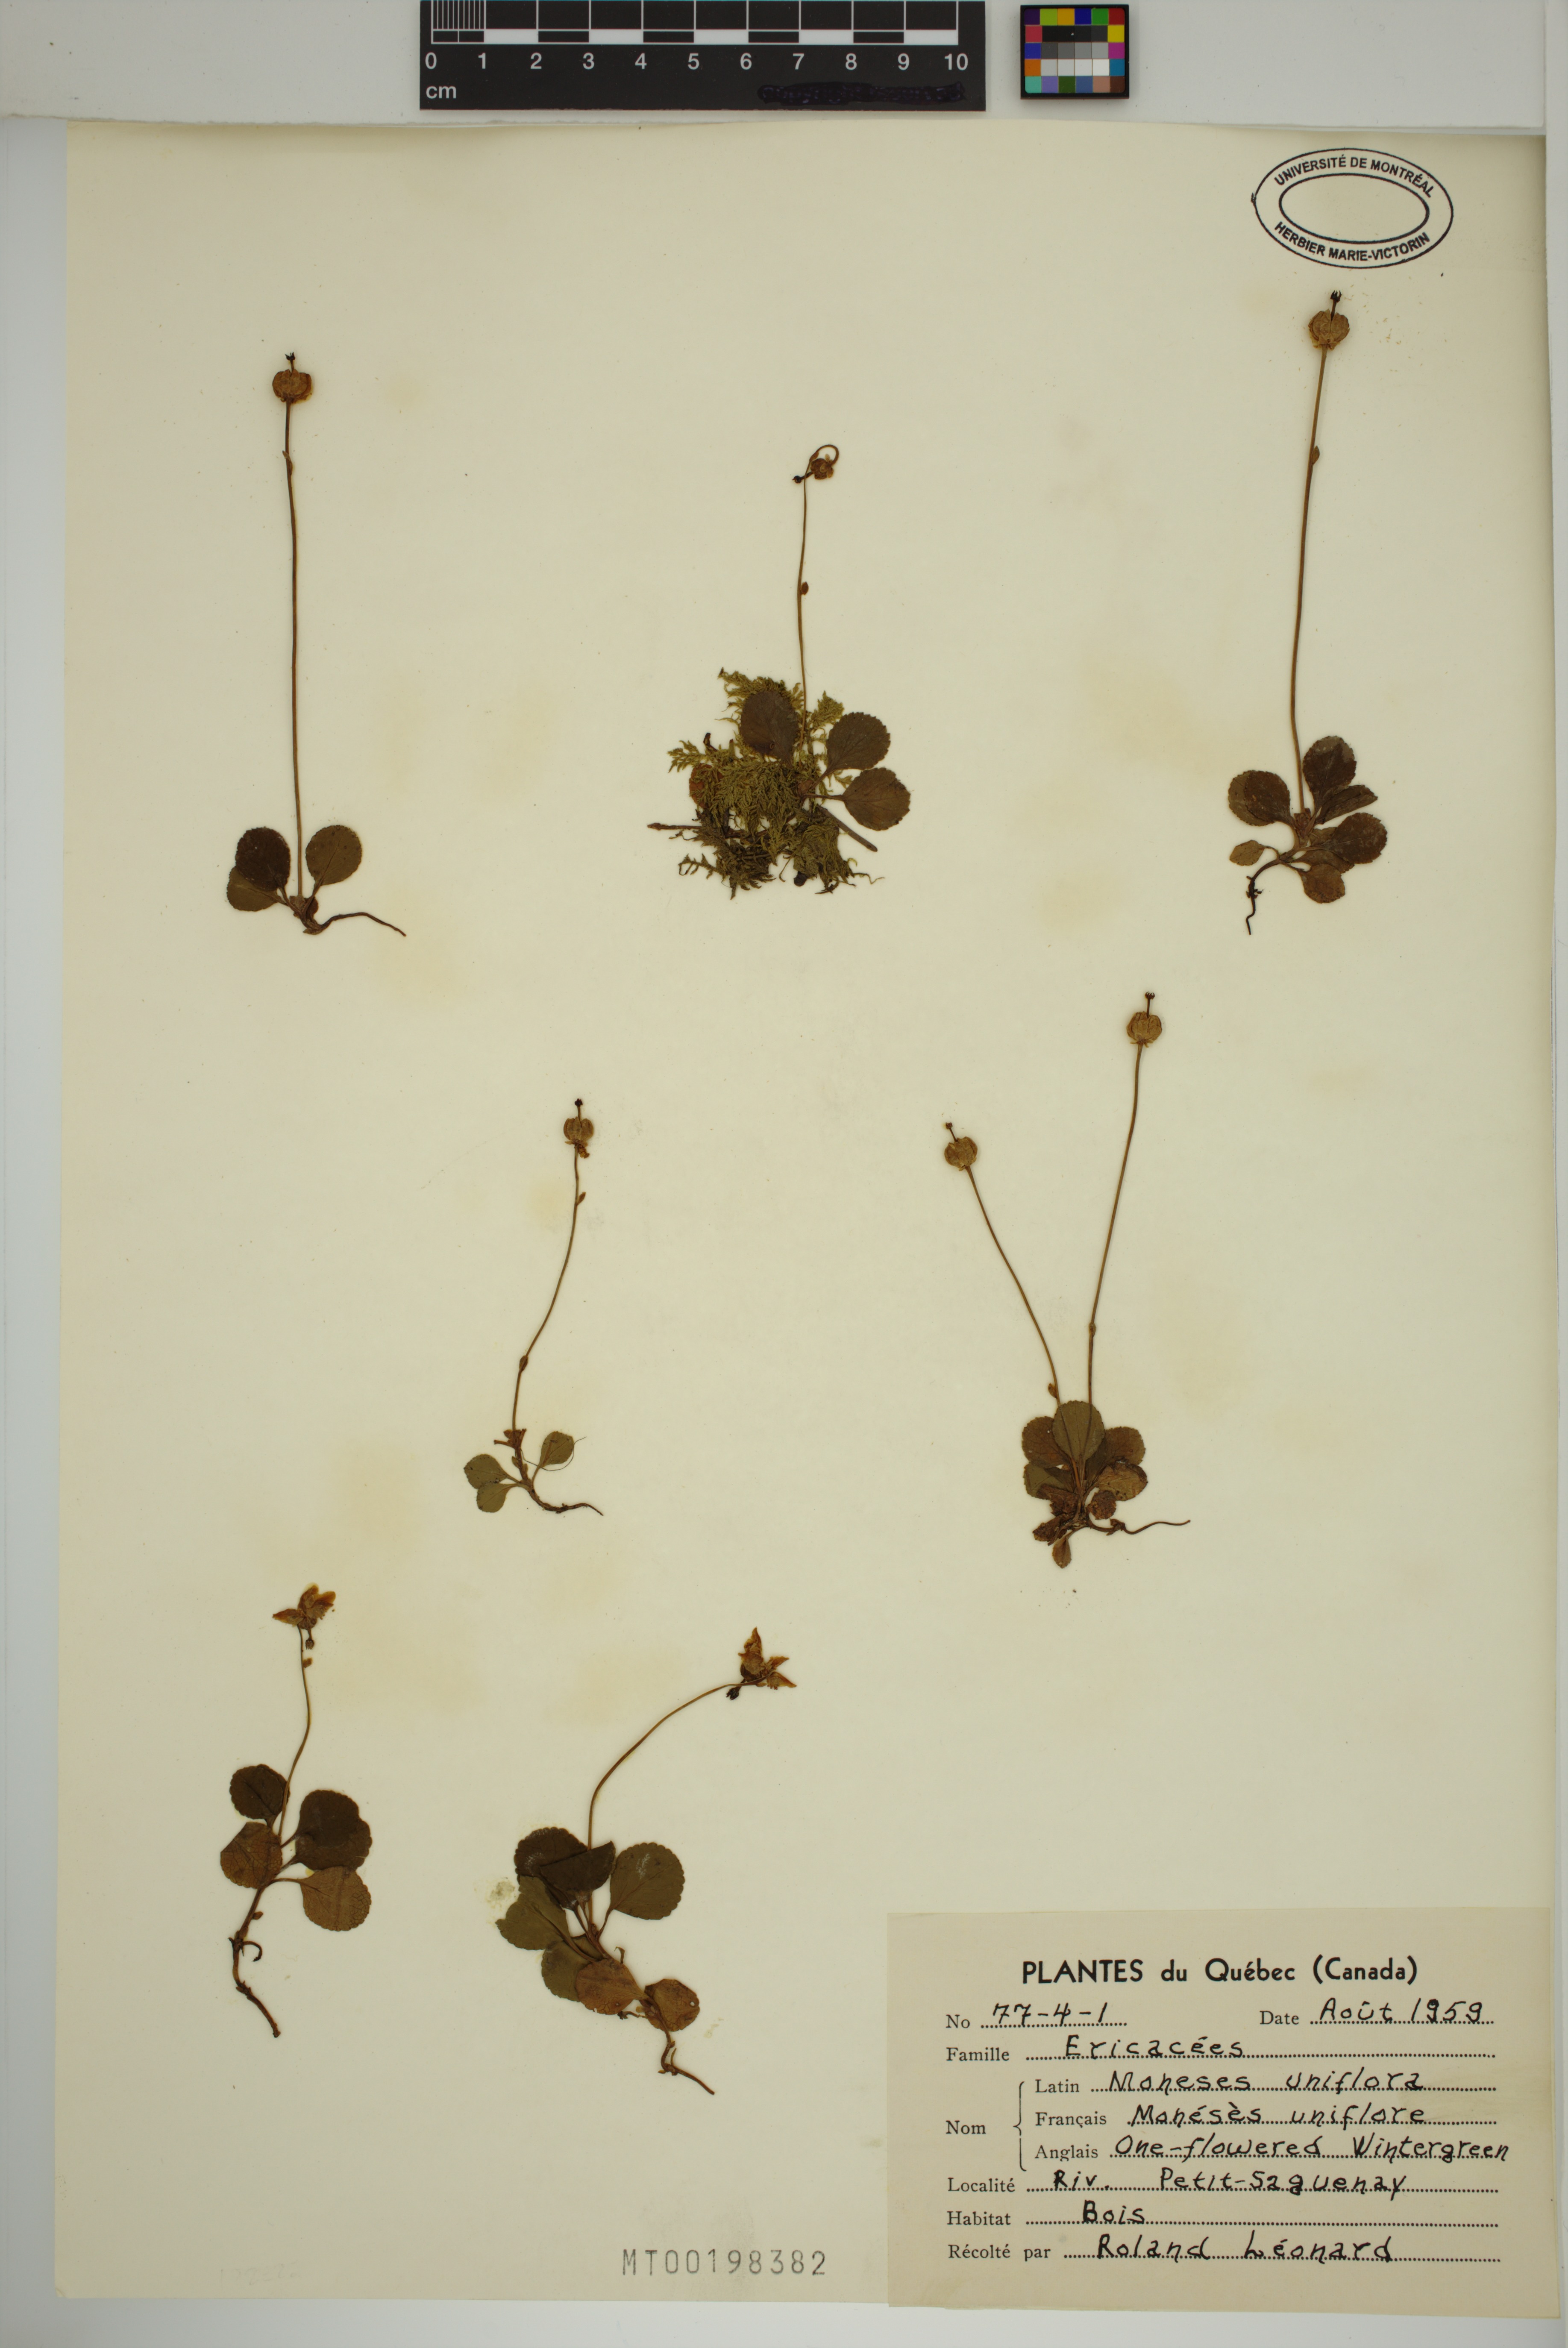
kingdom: Plantae
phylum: Tracheophyta
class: Magnoliopsida
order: Ericales
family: Ericaceae
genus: Moneses
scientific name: Moneses uniflora
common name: One-flowered wintergreen
